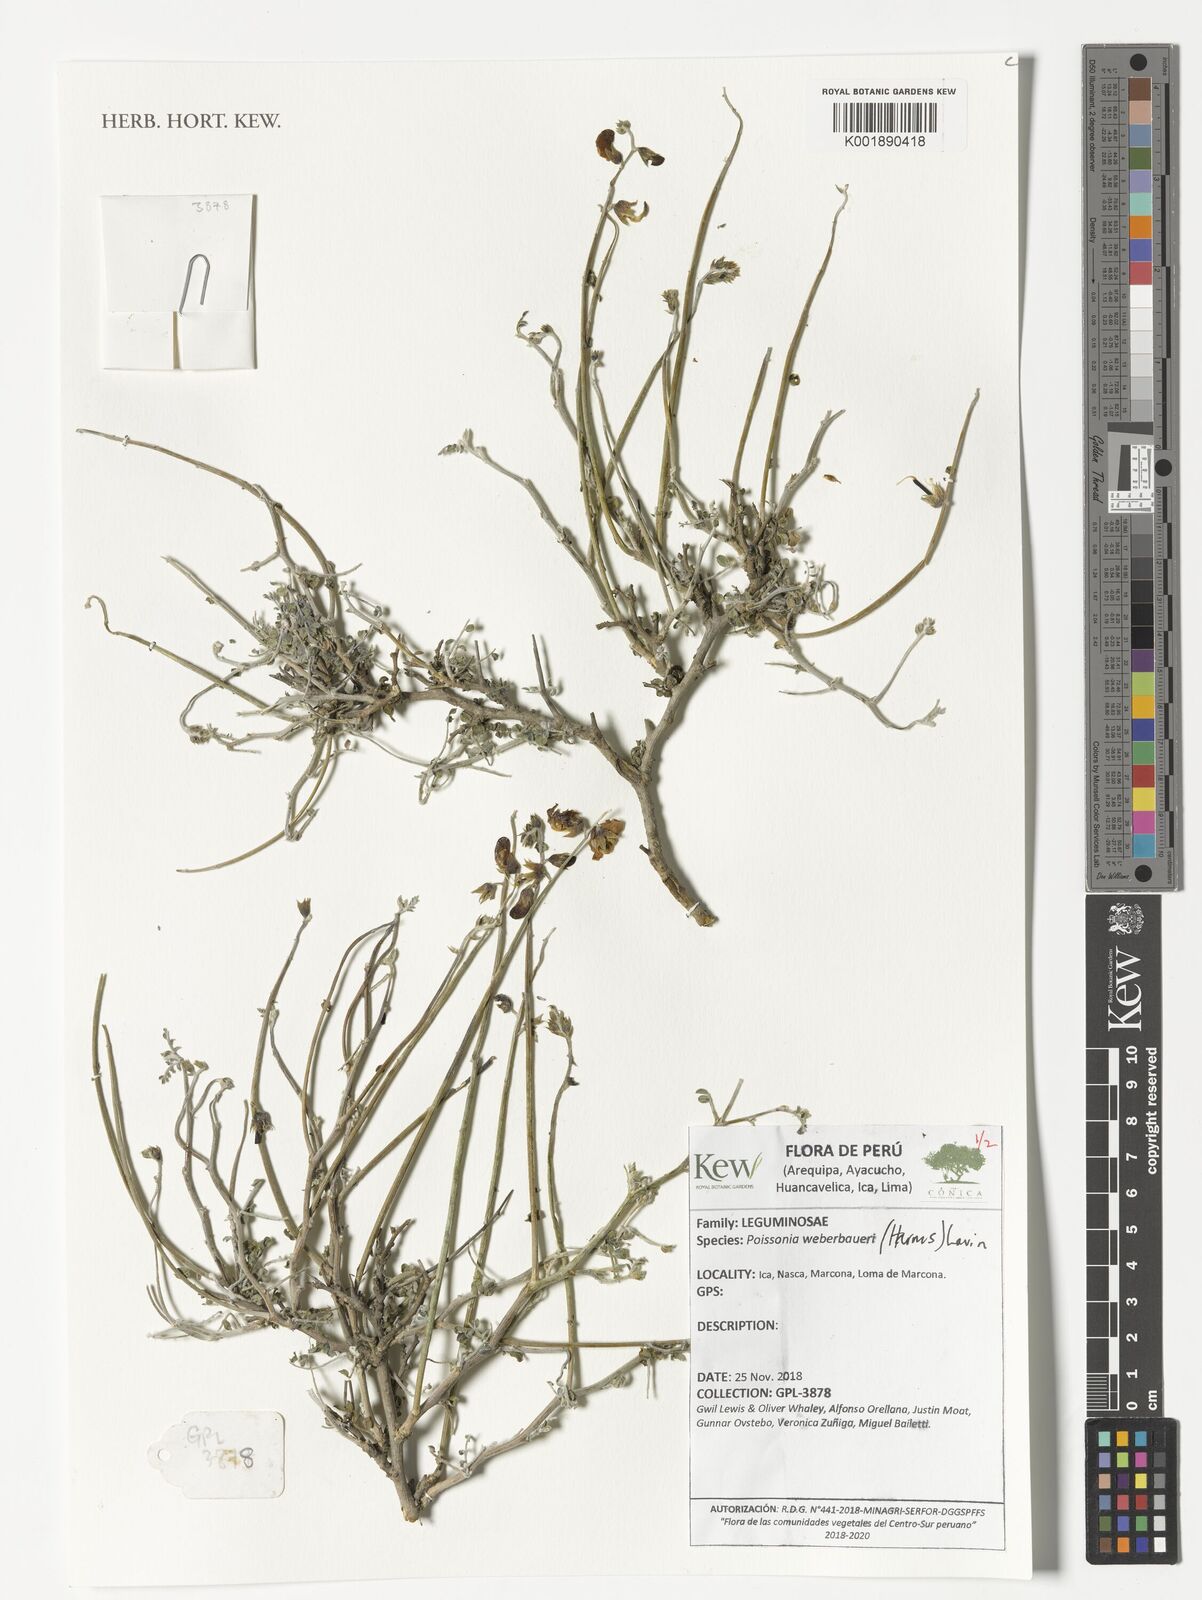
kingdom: Plantae
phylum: Tracheophyta
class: Magnoliopsida
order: Fabales
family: Fabaceae
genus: Poissonia
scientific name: Poissonia weberbaueri
